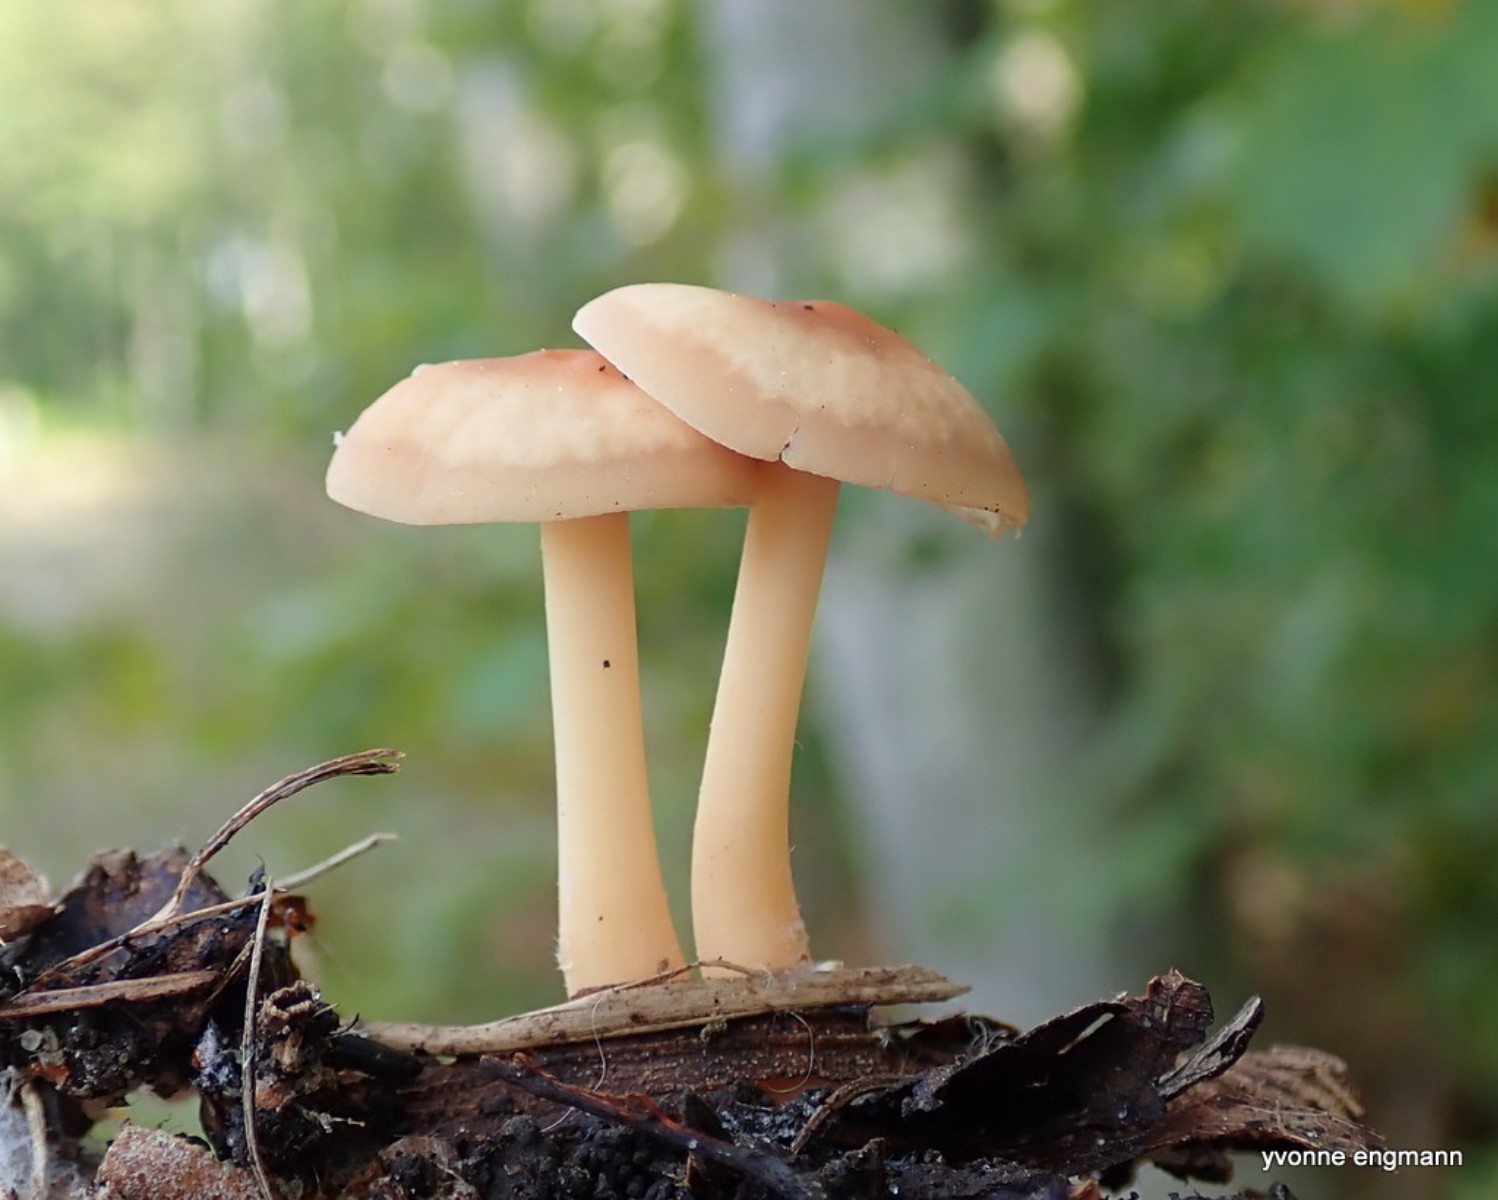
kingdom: Fungi
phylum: Basidiomycota
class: Agaricomycetes
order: Agaricales
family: Omphalotaceae
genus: Gymnopus
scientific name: Gymnopus
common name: fladhat
